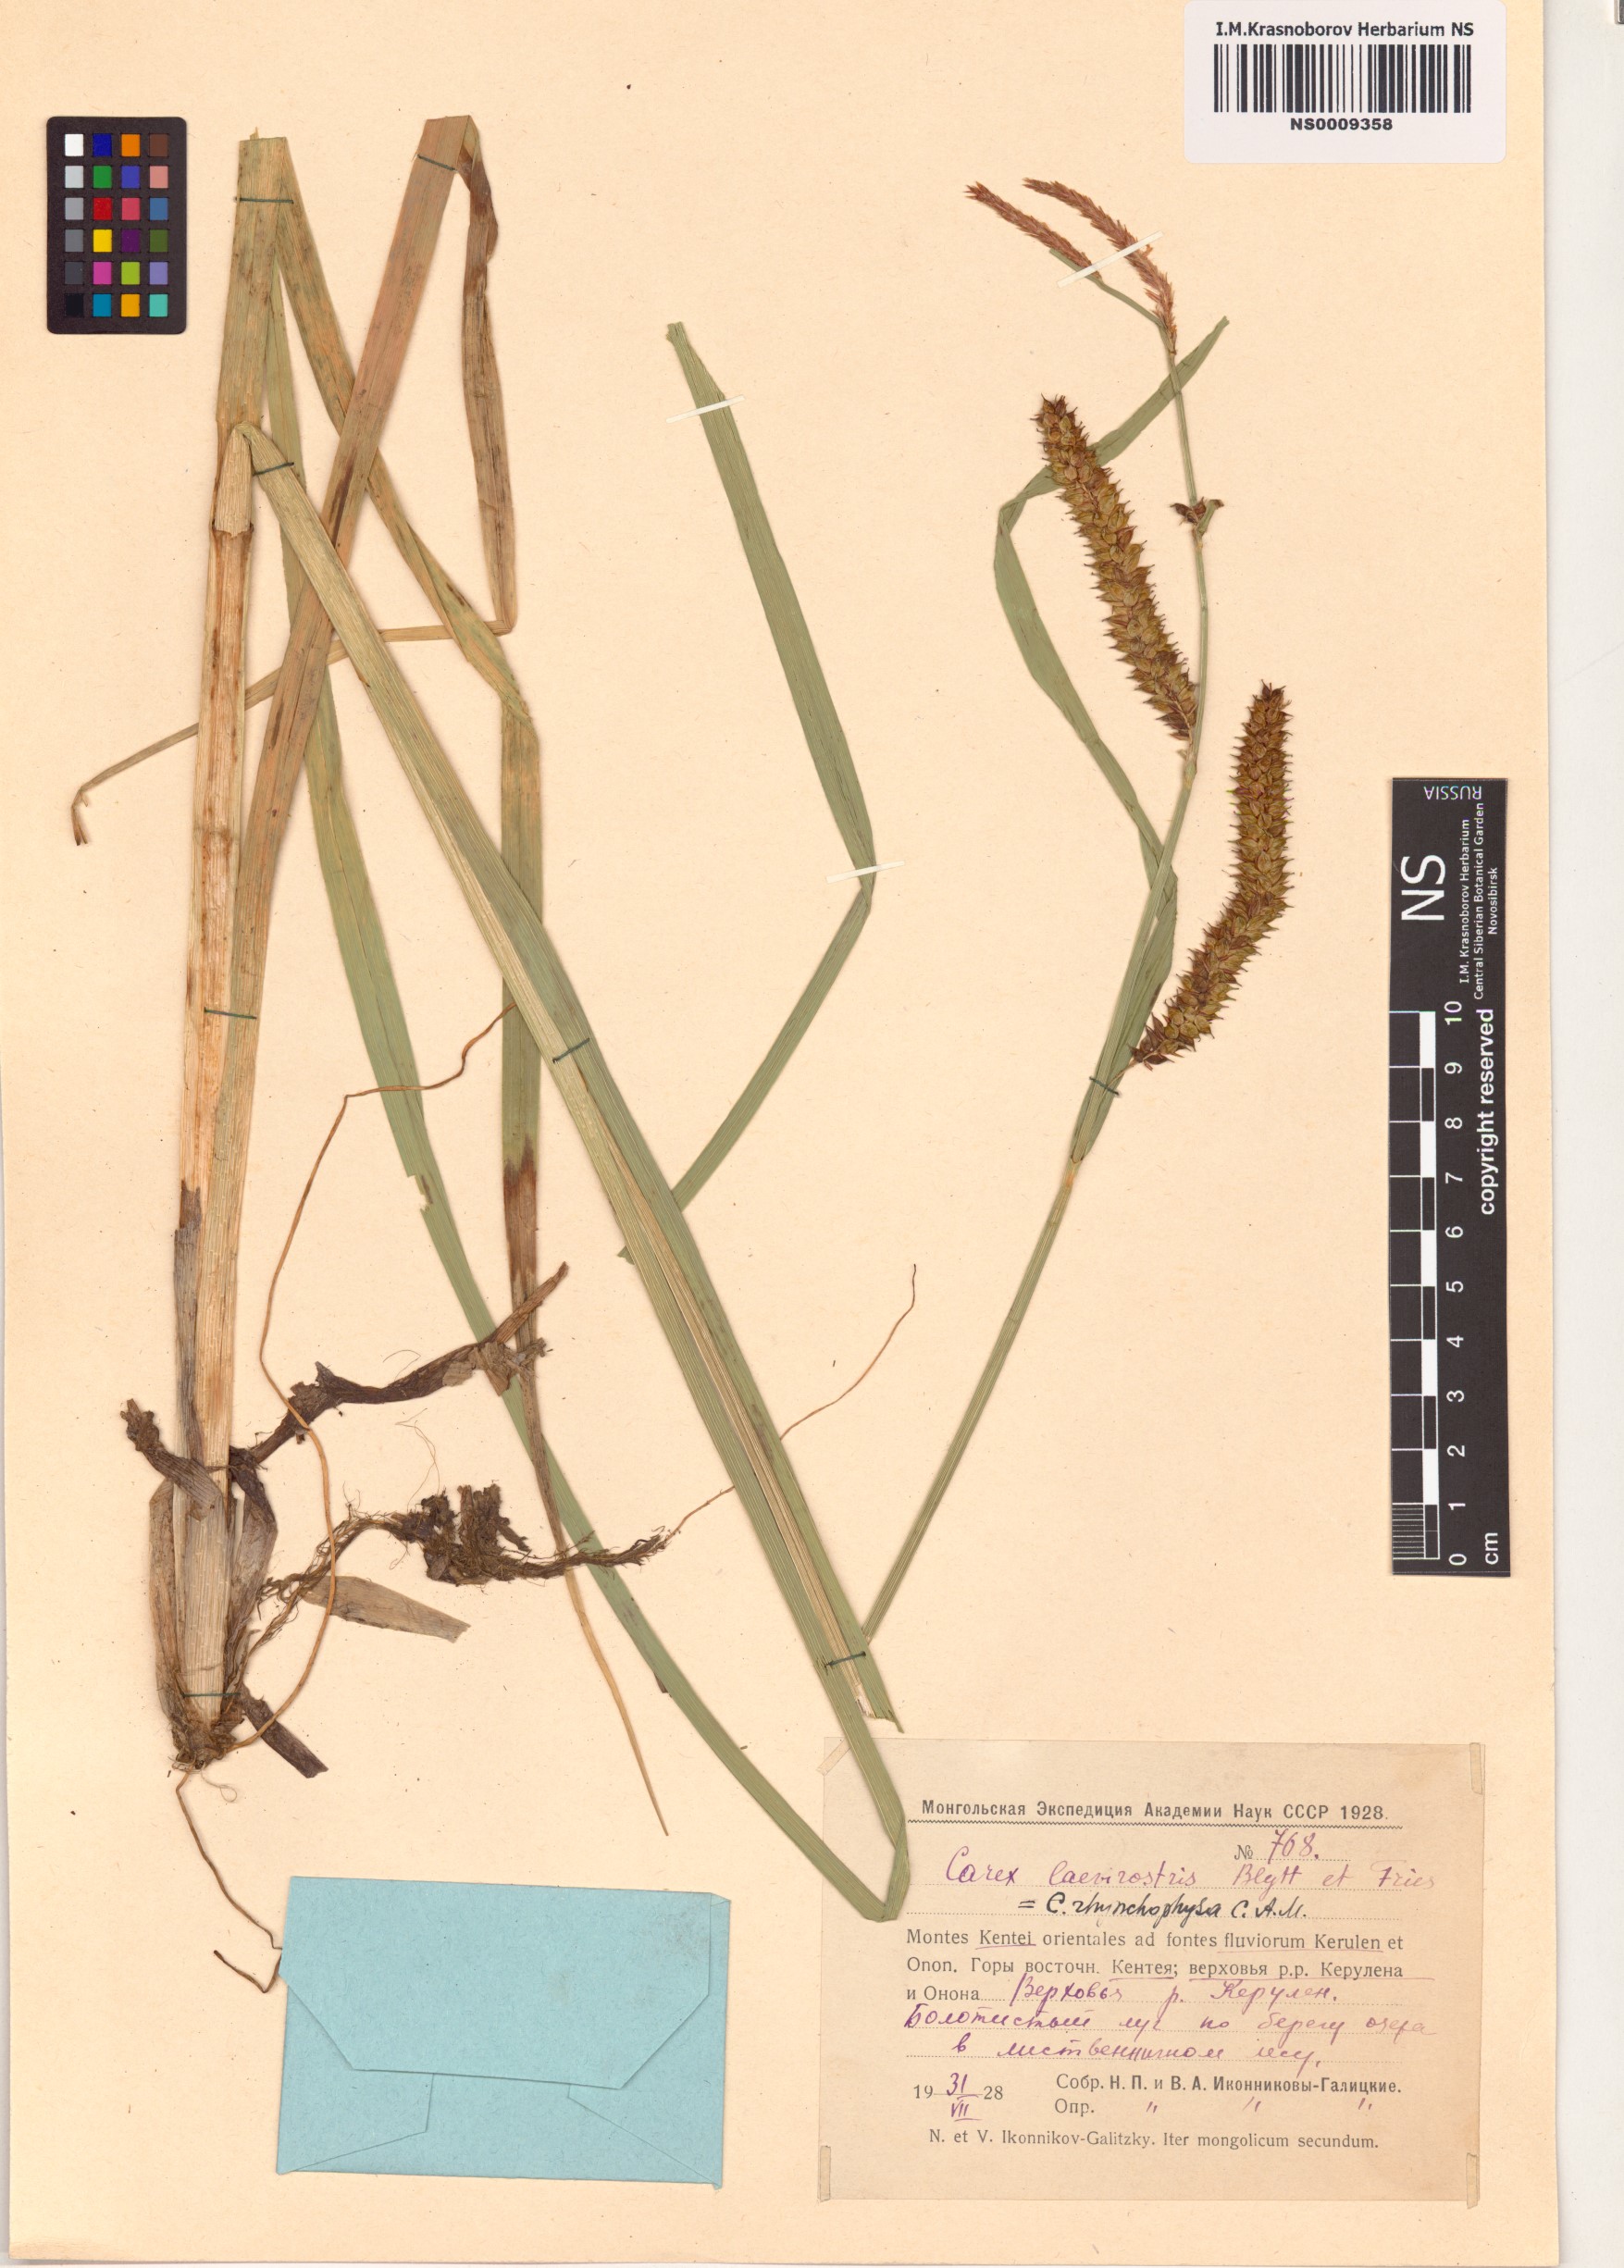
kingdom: Plantae
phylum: Tracheophyta
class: Liliopsida
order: Poales
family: Cyperaceae
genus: Carex
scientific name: Carex utriculata
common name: Beaked sedge
